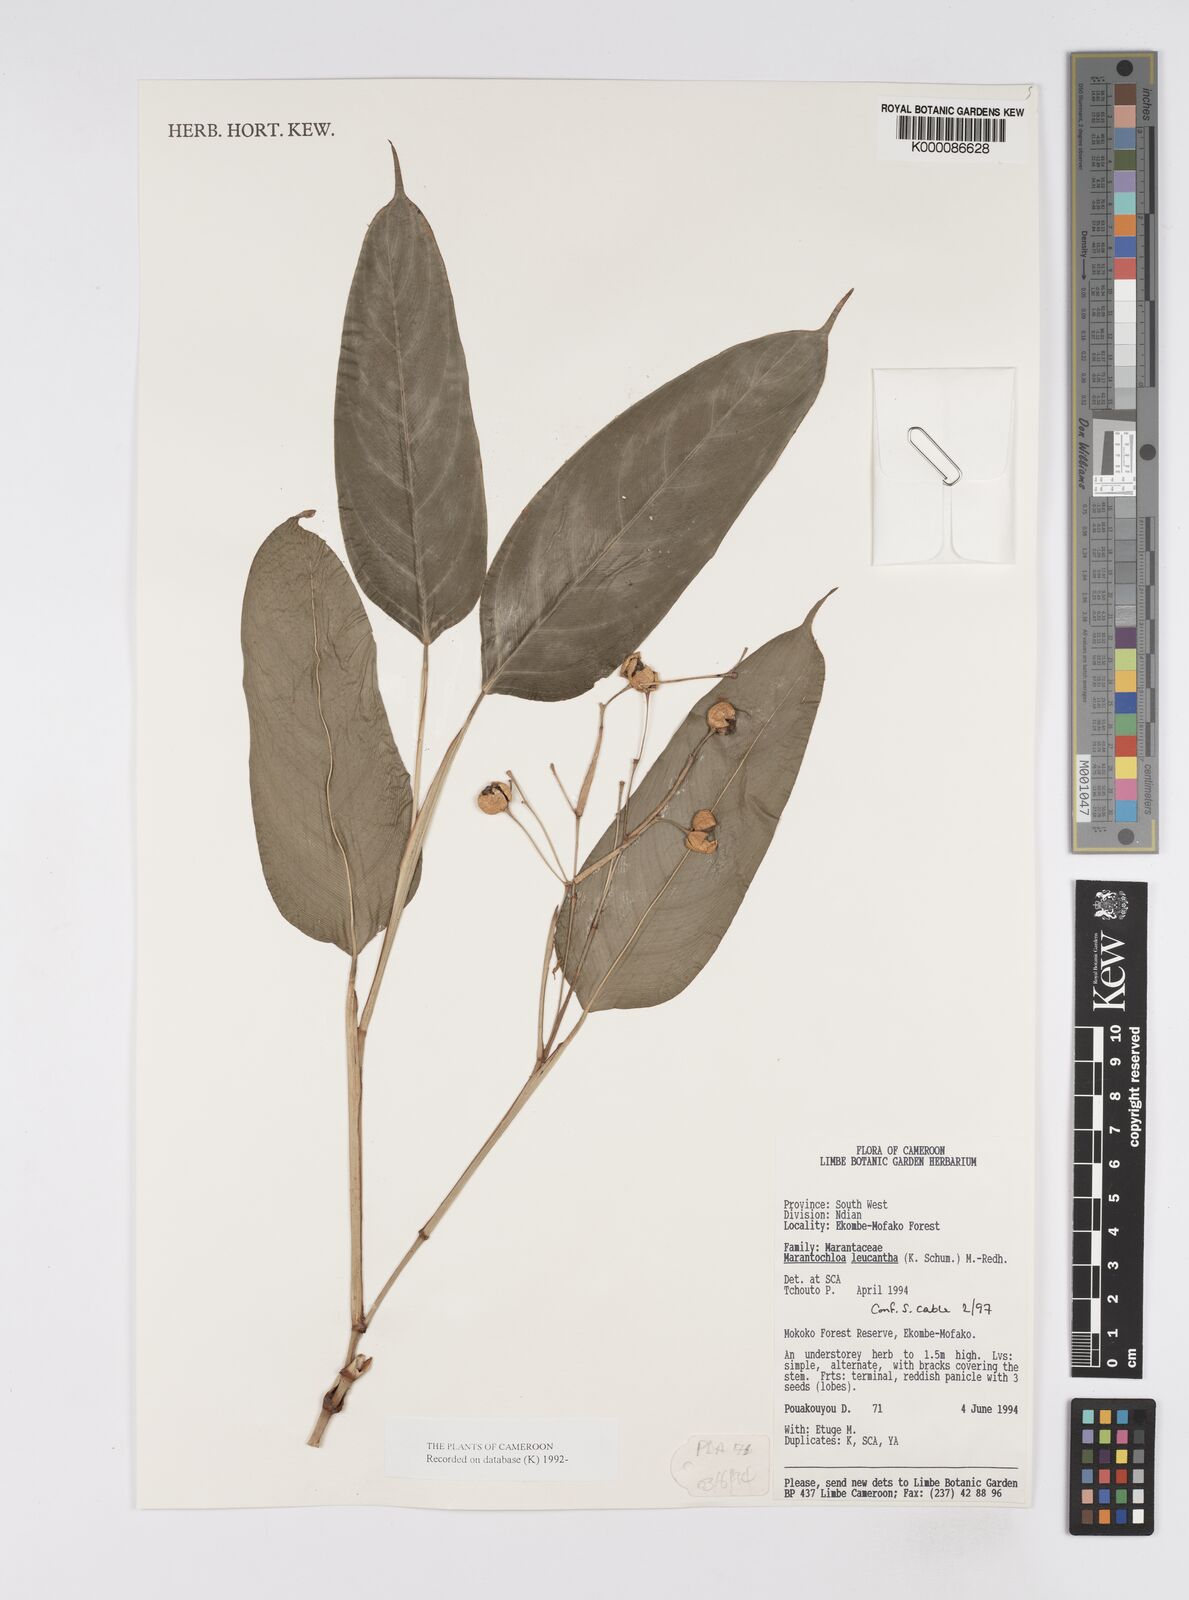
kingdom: Plantae
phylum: Tracheophyta
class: Liliopsida
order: Zingiberales
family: Marantaceae
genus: Marantochloa
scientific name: Marantochloa leucantha
